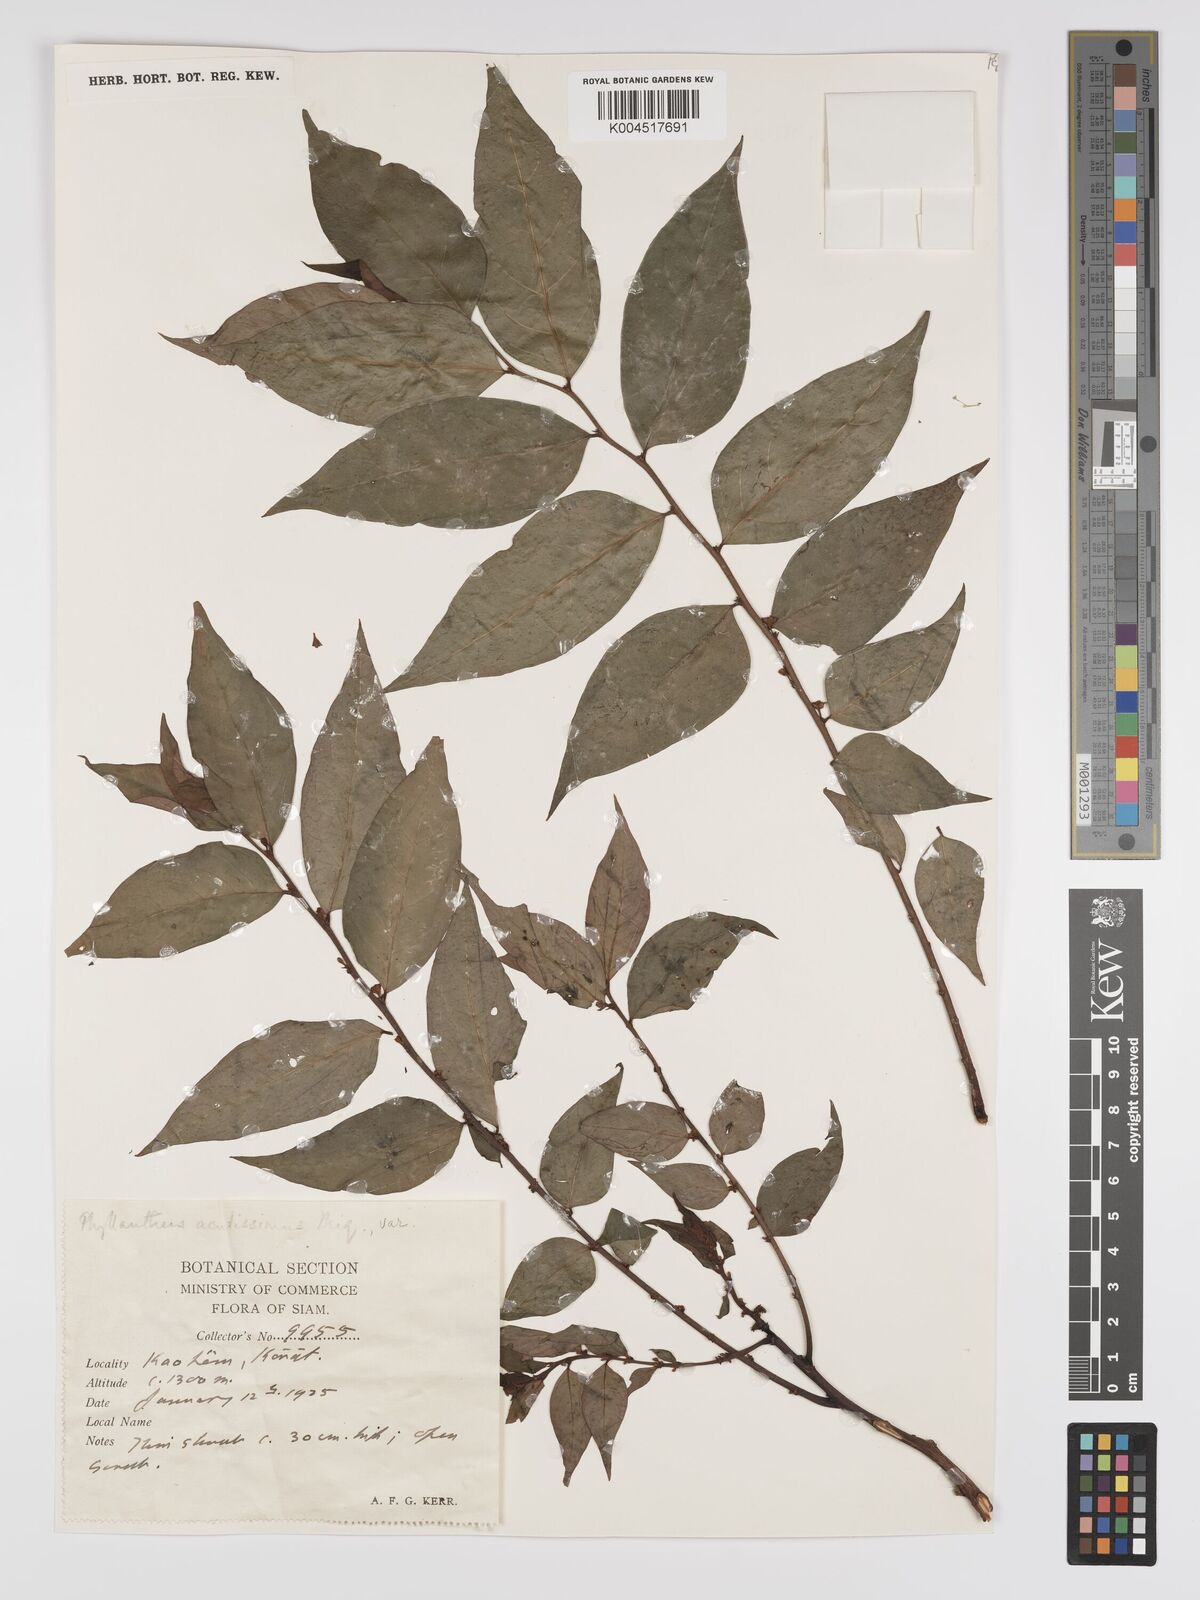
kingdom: Plantae
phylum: Tracheophyta
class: Magnoliopsida
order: Malpighiales
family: Phyllanthaceae
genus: Phyllanthus
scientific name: Phyllanthus acutissimus
